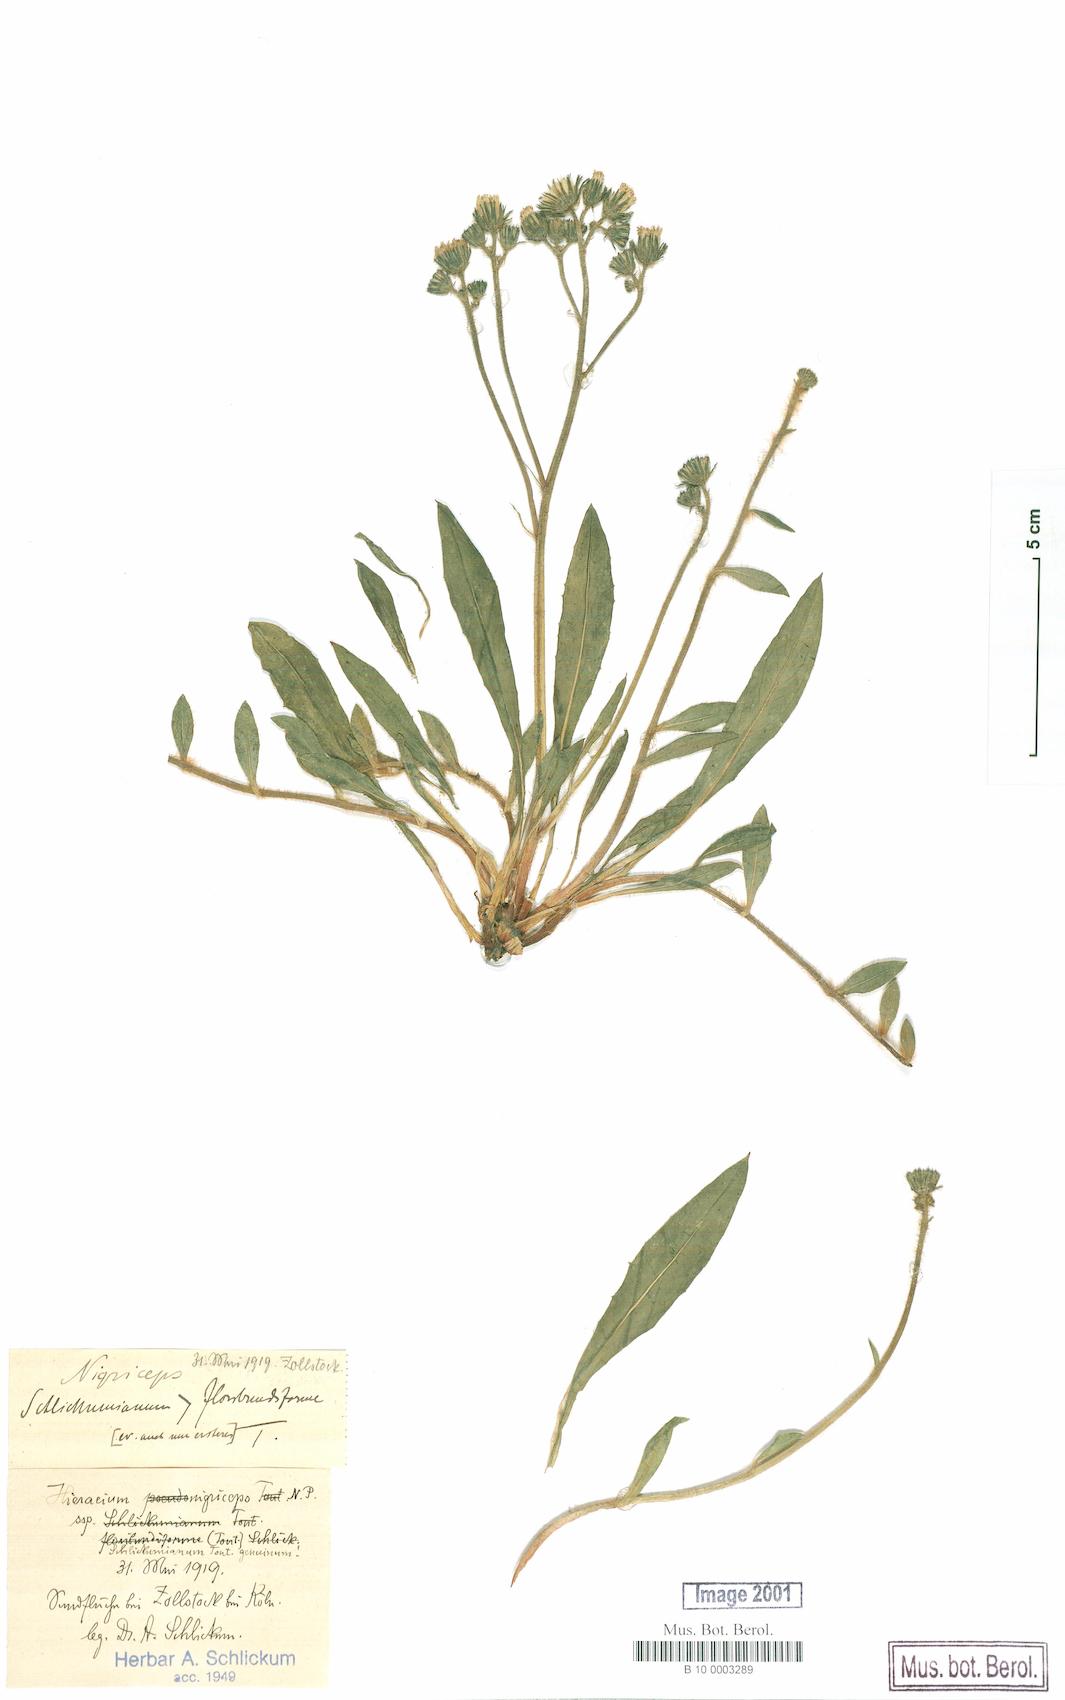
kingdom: Plantae
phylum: Tracheophyta
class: Magnoliopsida
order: Asterales
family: Asteraceae
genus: Pilosella
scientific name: Pilosella iserana
